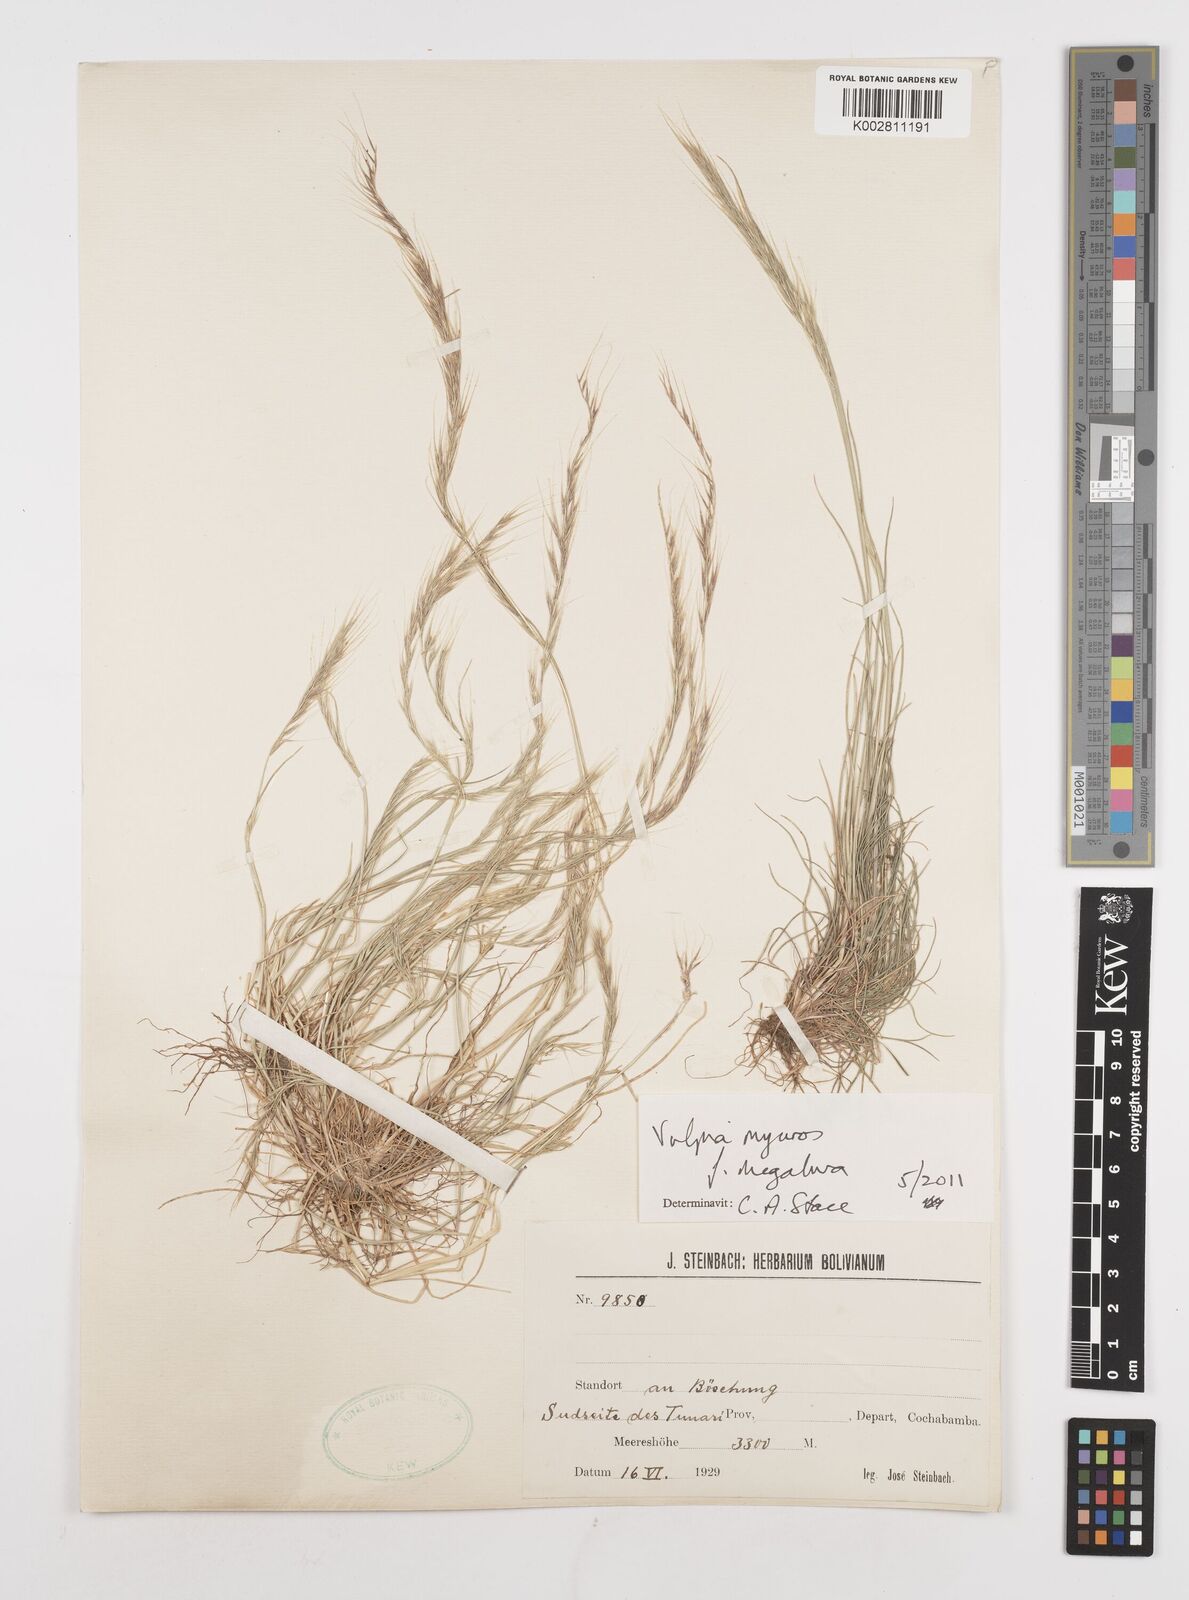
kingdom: Plantae
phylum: Tracheophyta
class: Liliopsida
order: Poales
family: Poaceae
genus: Festuca
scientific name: Festuca myuros
